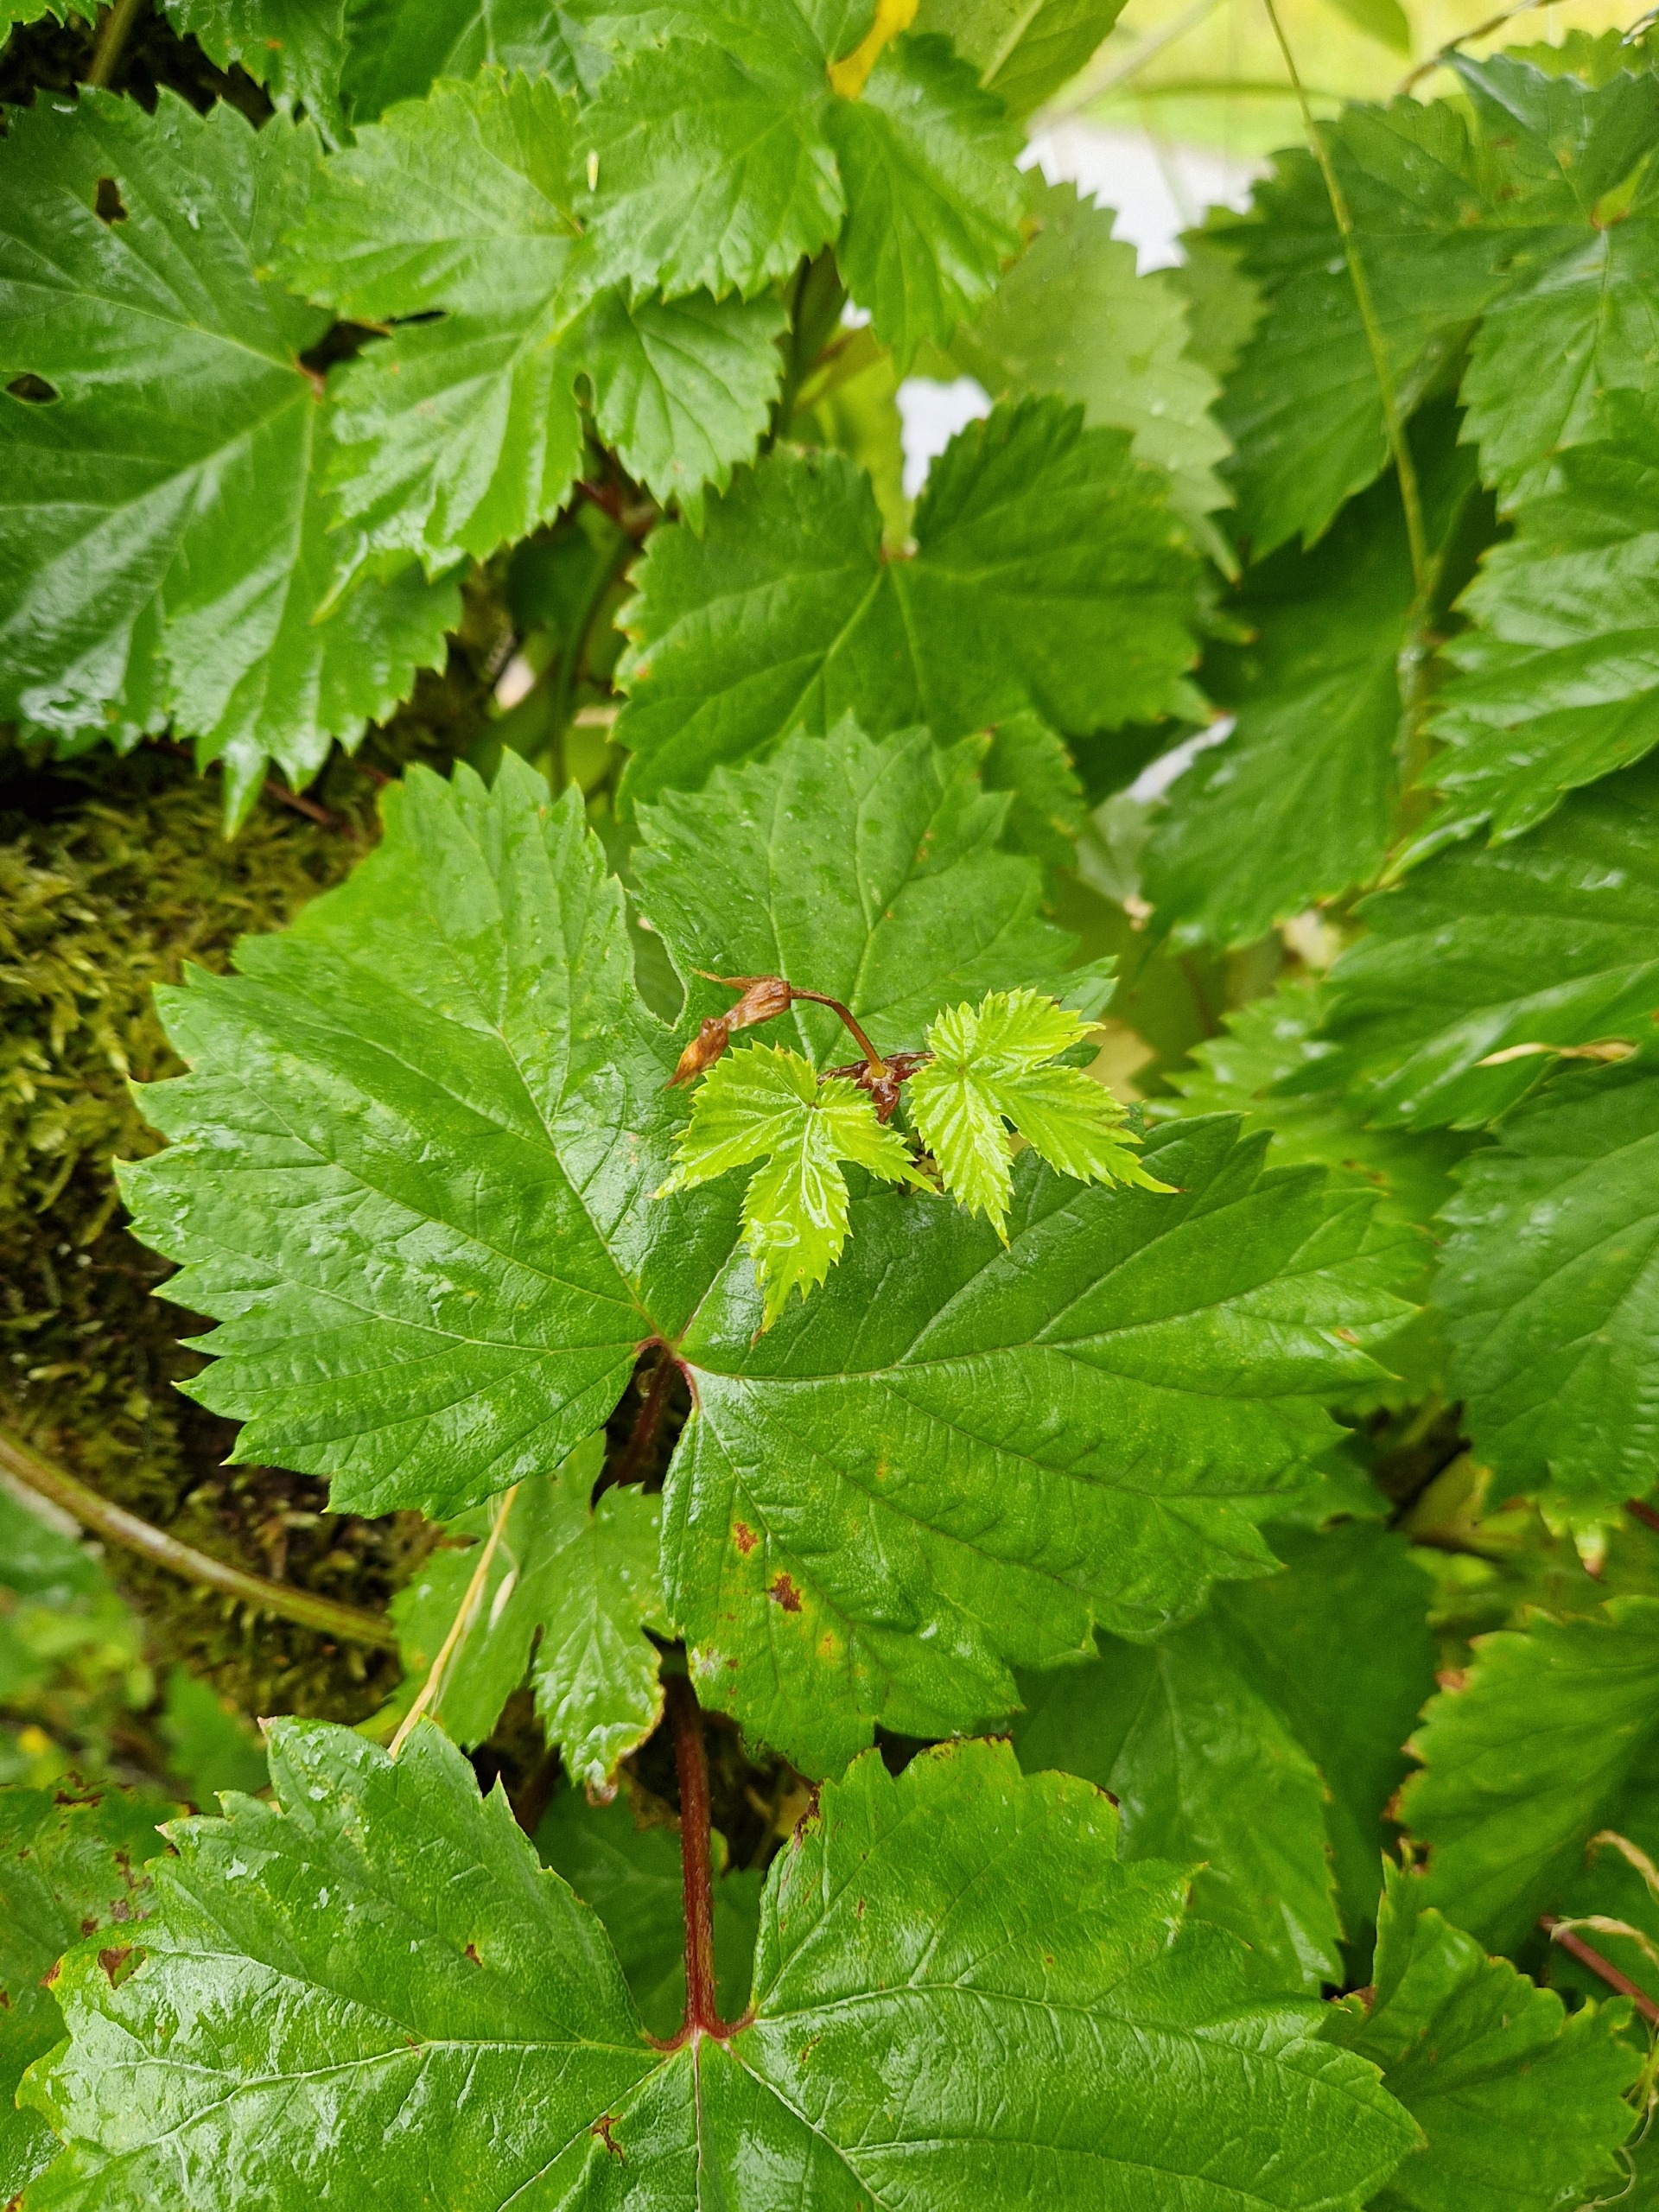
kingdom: Plantae
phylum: Tracheophyta
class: Magnoliopsida
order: Rosales
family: Cannabaceae
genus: Humulus
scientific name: Humulus lupulus
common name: Humle
